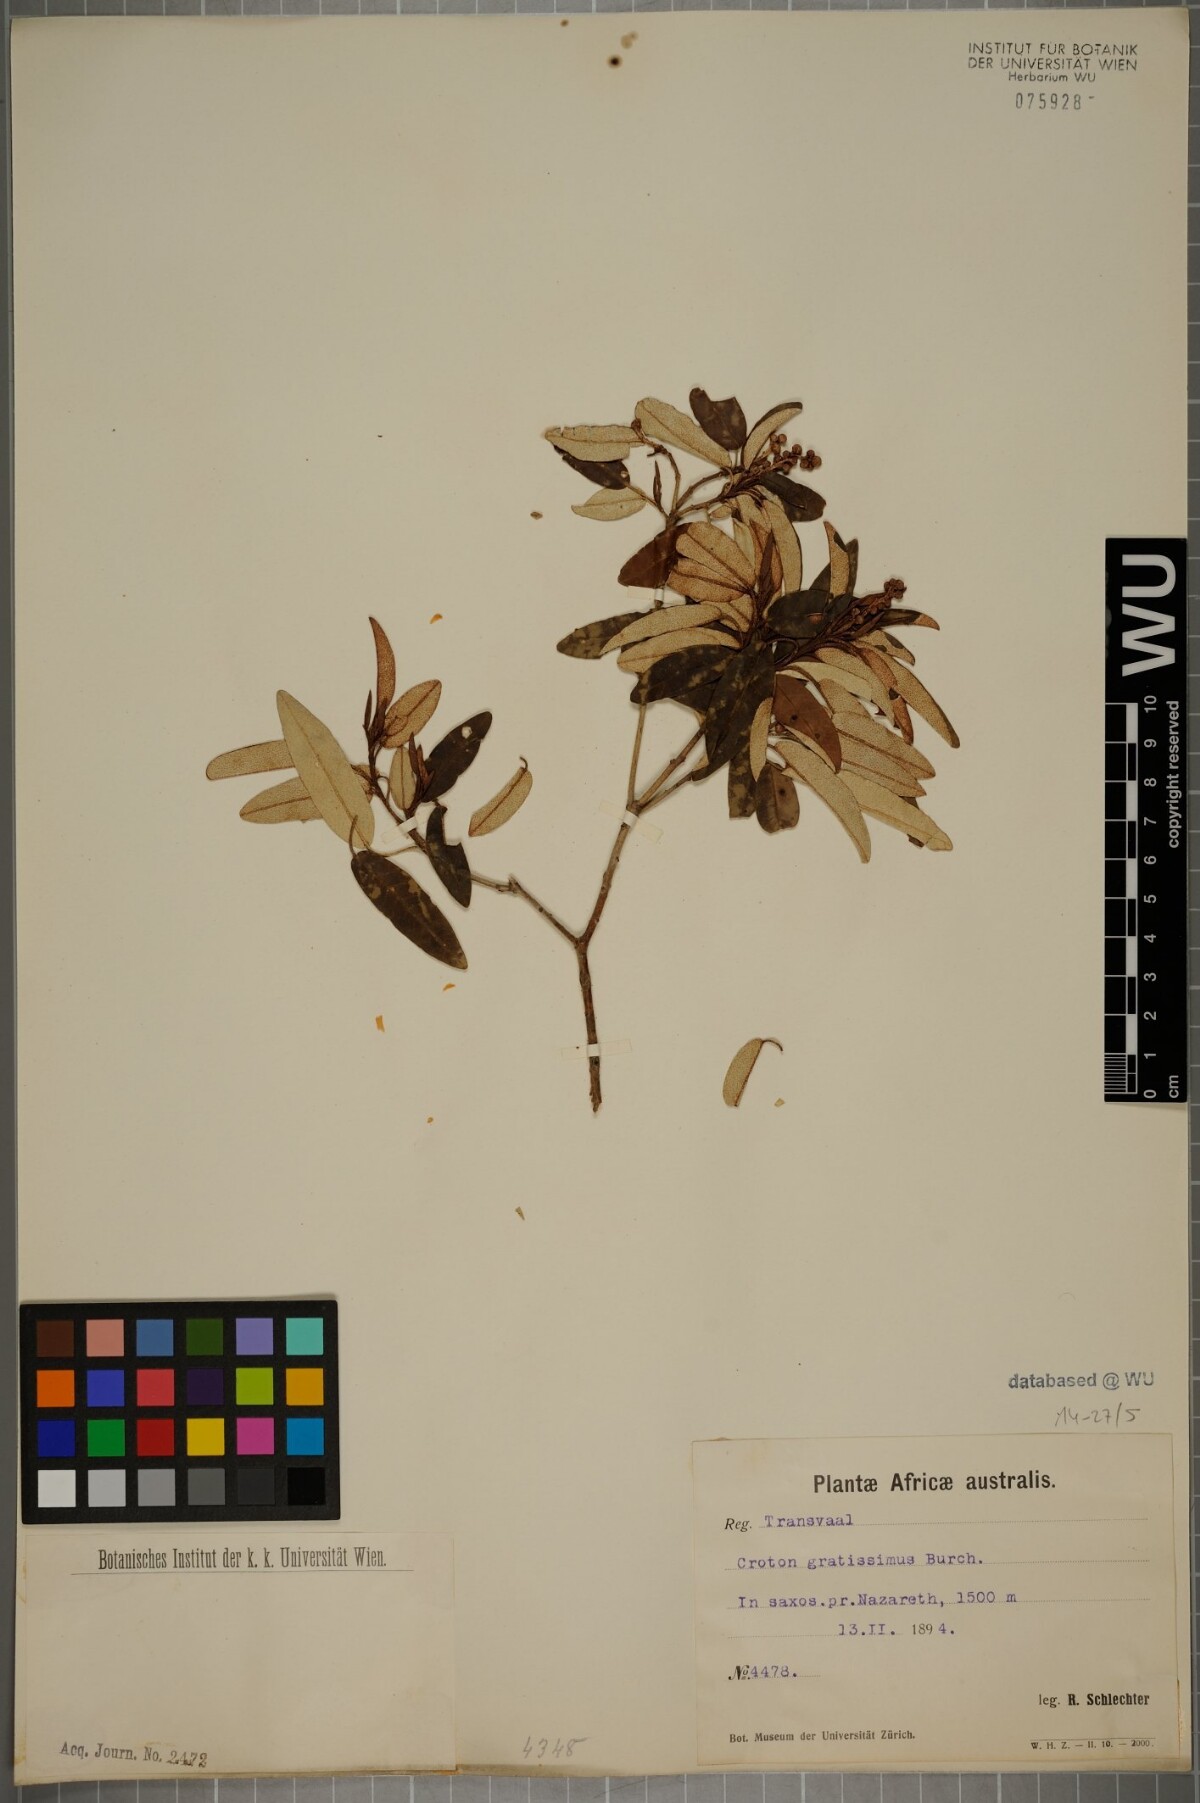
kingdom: Plantae
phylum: Tracheophyta
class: Magnoliopsida
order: Malpighiales
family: Euphorbiaceae
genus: Croton
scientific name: Croton gratissimus
